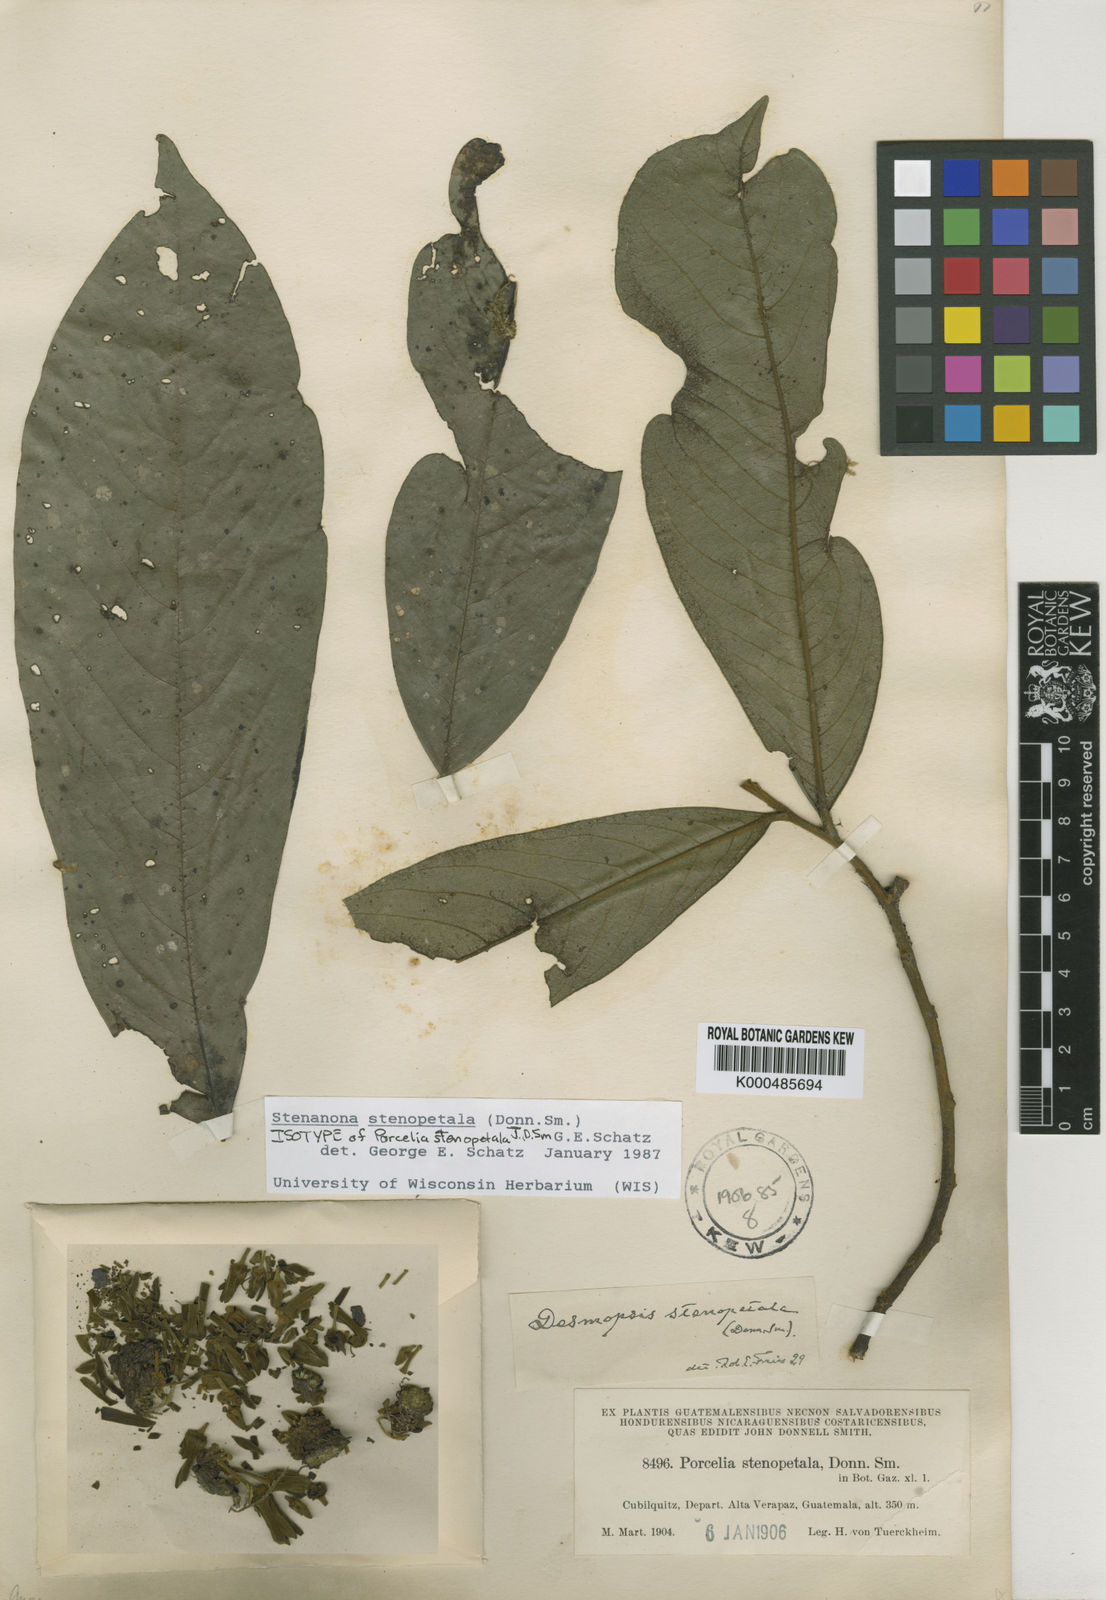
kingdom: Plantae
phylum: Tracheophyta
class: Magnoliopsida
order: Magnoliales
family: Annonaceae
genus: Stenanona
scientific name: Stenanona
